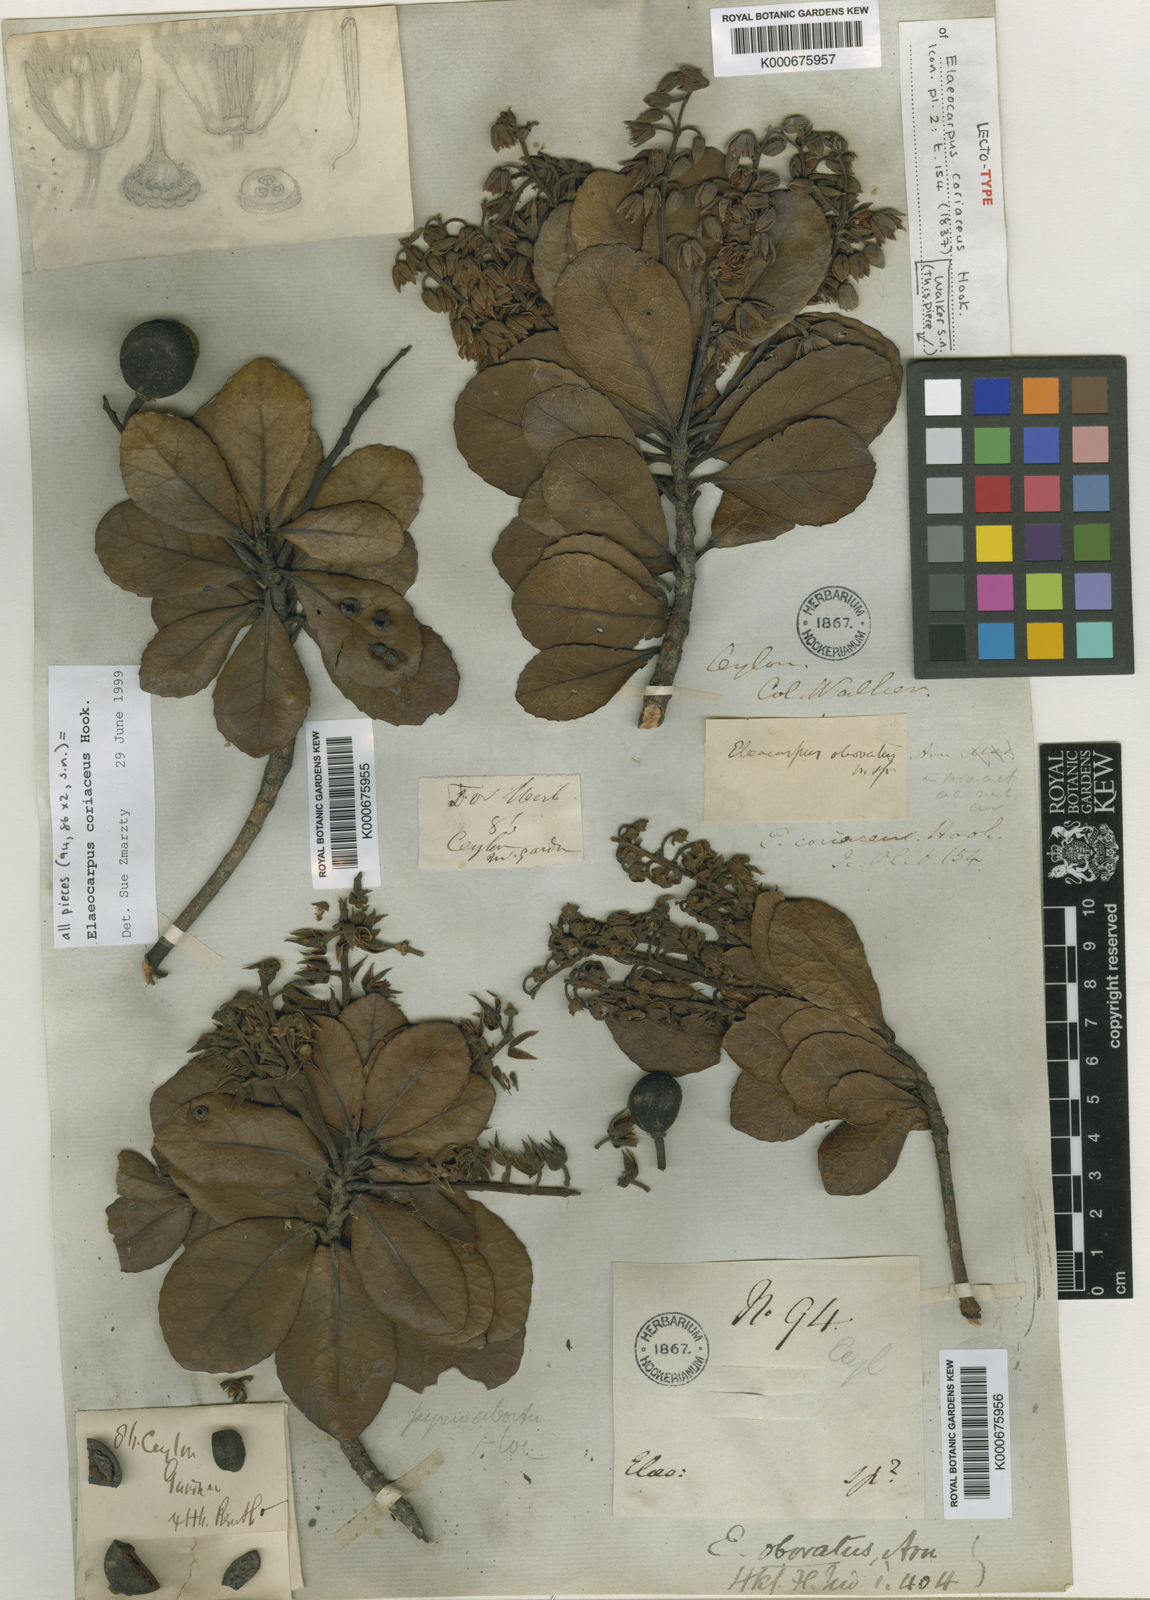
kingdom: Plantae
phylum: Tracheophyta
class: Magnoliopsida
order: Oxalidales
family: Elaeocarpaceae
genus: Elaeocarpus
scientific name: Elaeocarpus coriaceus
